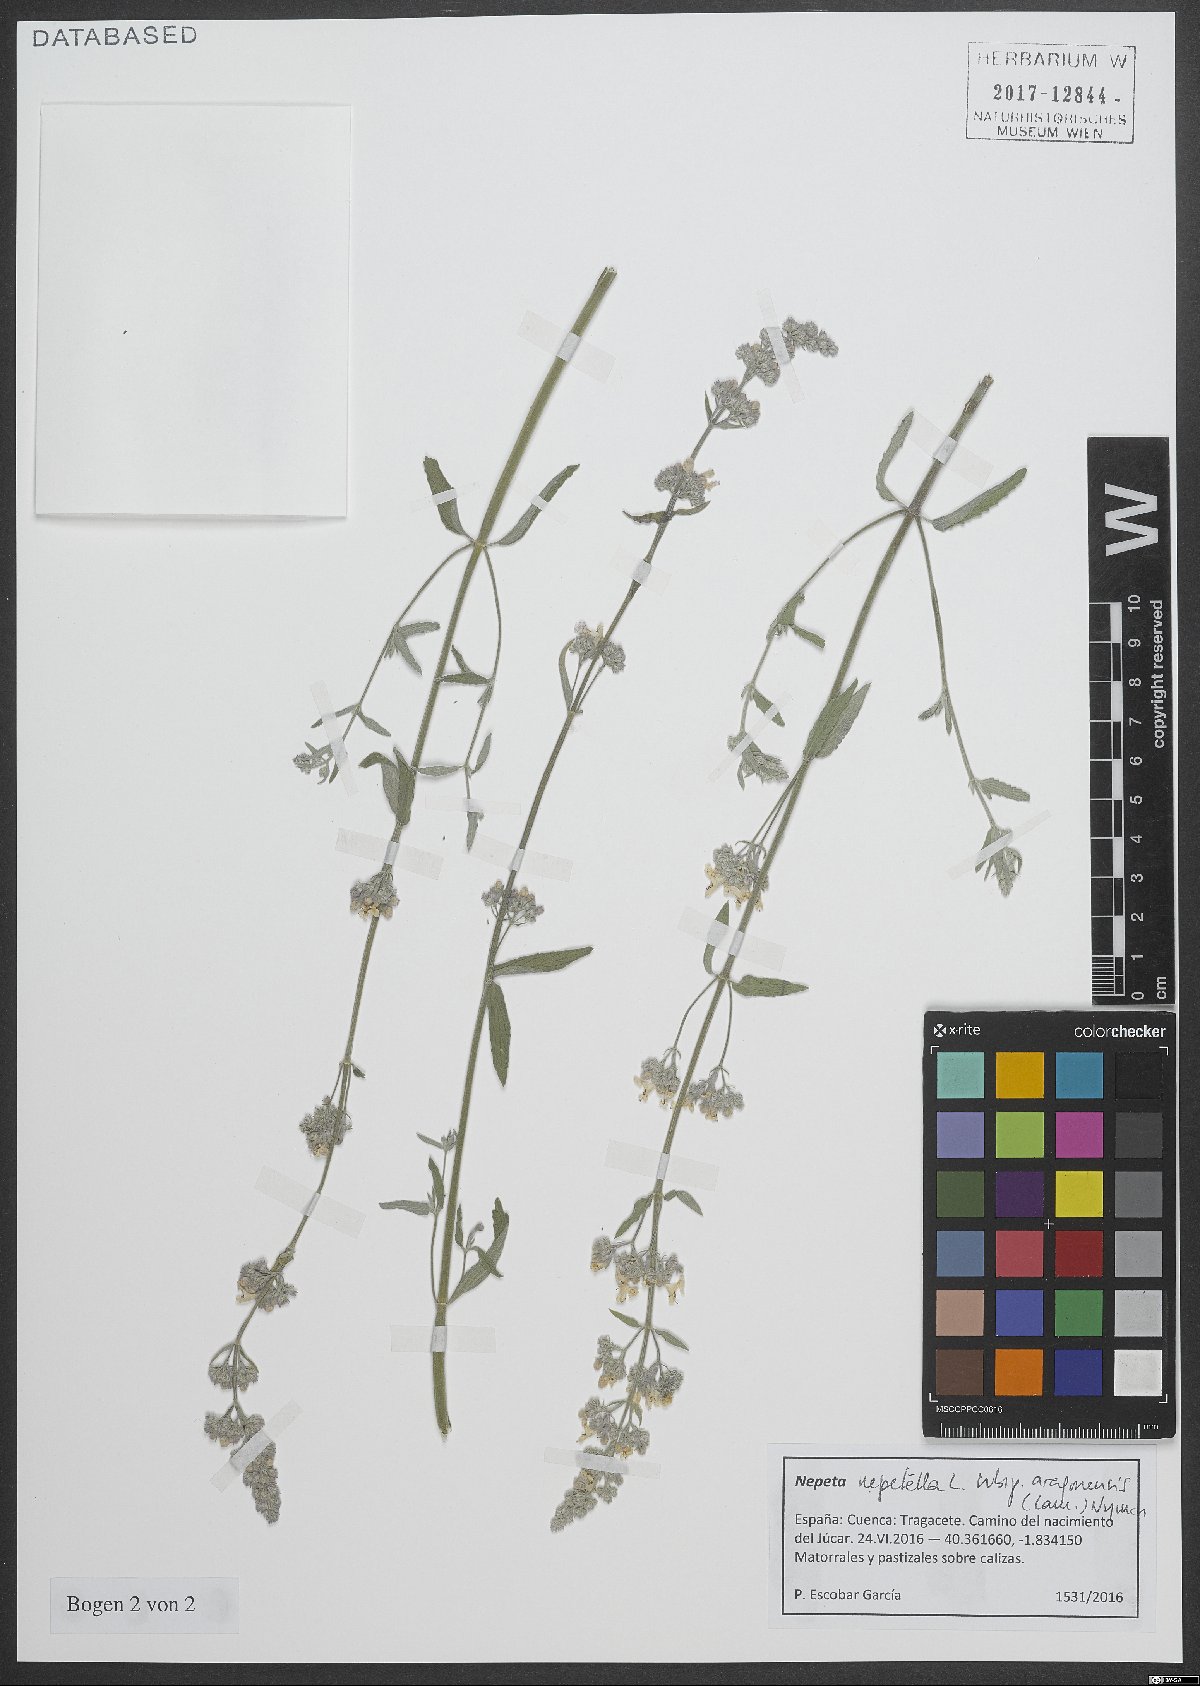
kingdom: Plantae
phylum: Tracheophyta
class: Magnoliopsida
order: Lamiales
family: Lamiaceae
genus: Nepeta
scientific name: Nepeta nepetella
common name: Lesser catmint
